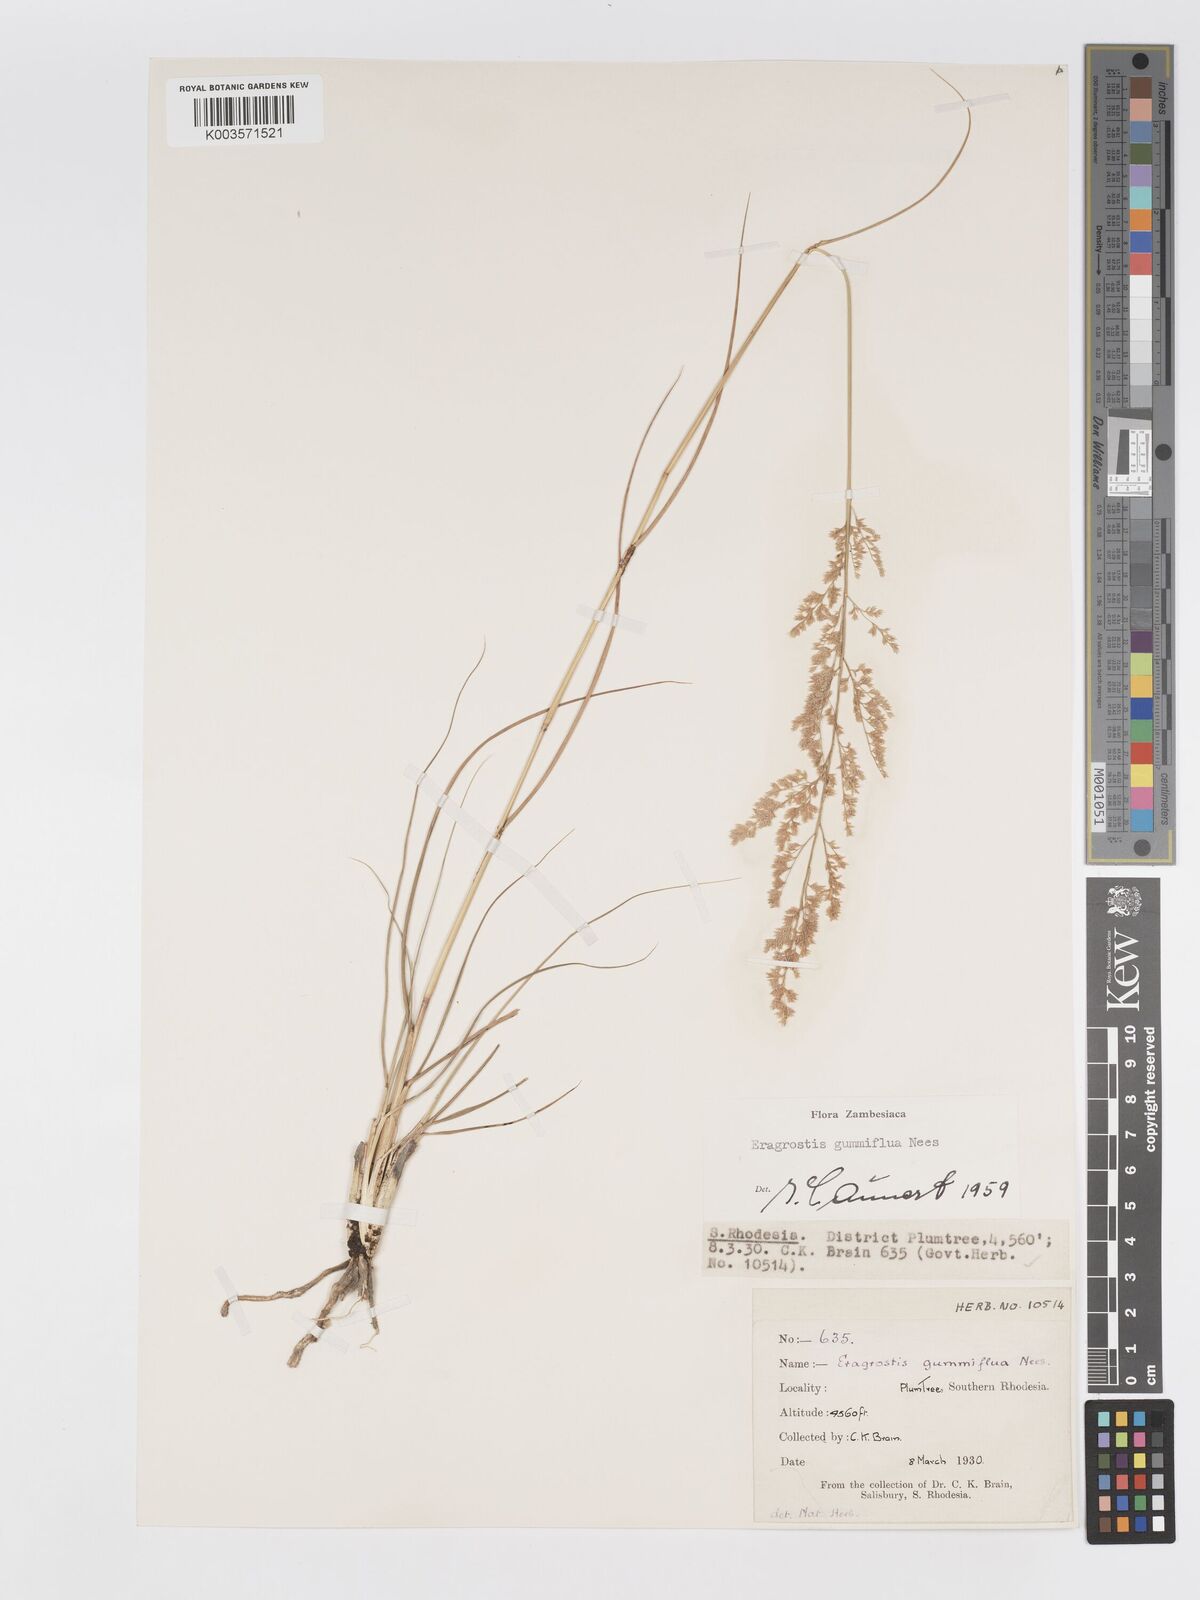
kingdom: Plantae
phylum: Tracheophyta
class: Liliopsida
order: Poales
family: Poaceae
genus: Eragrostis
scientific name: Eragrostis gummiflua
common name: Gum grass
